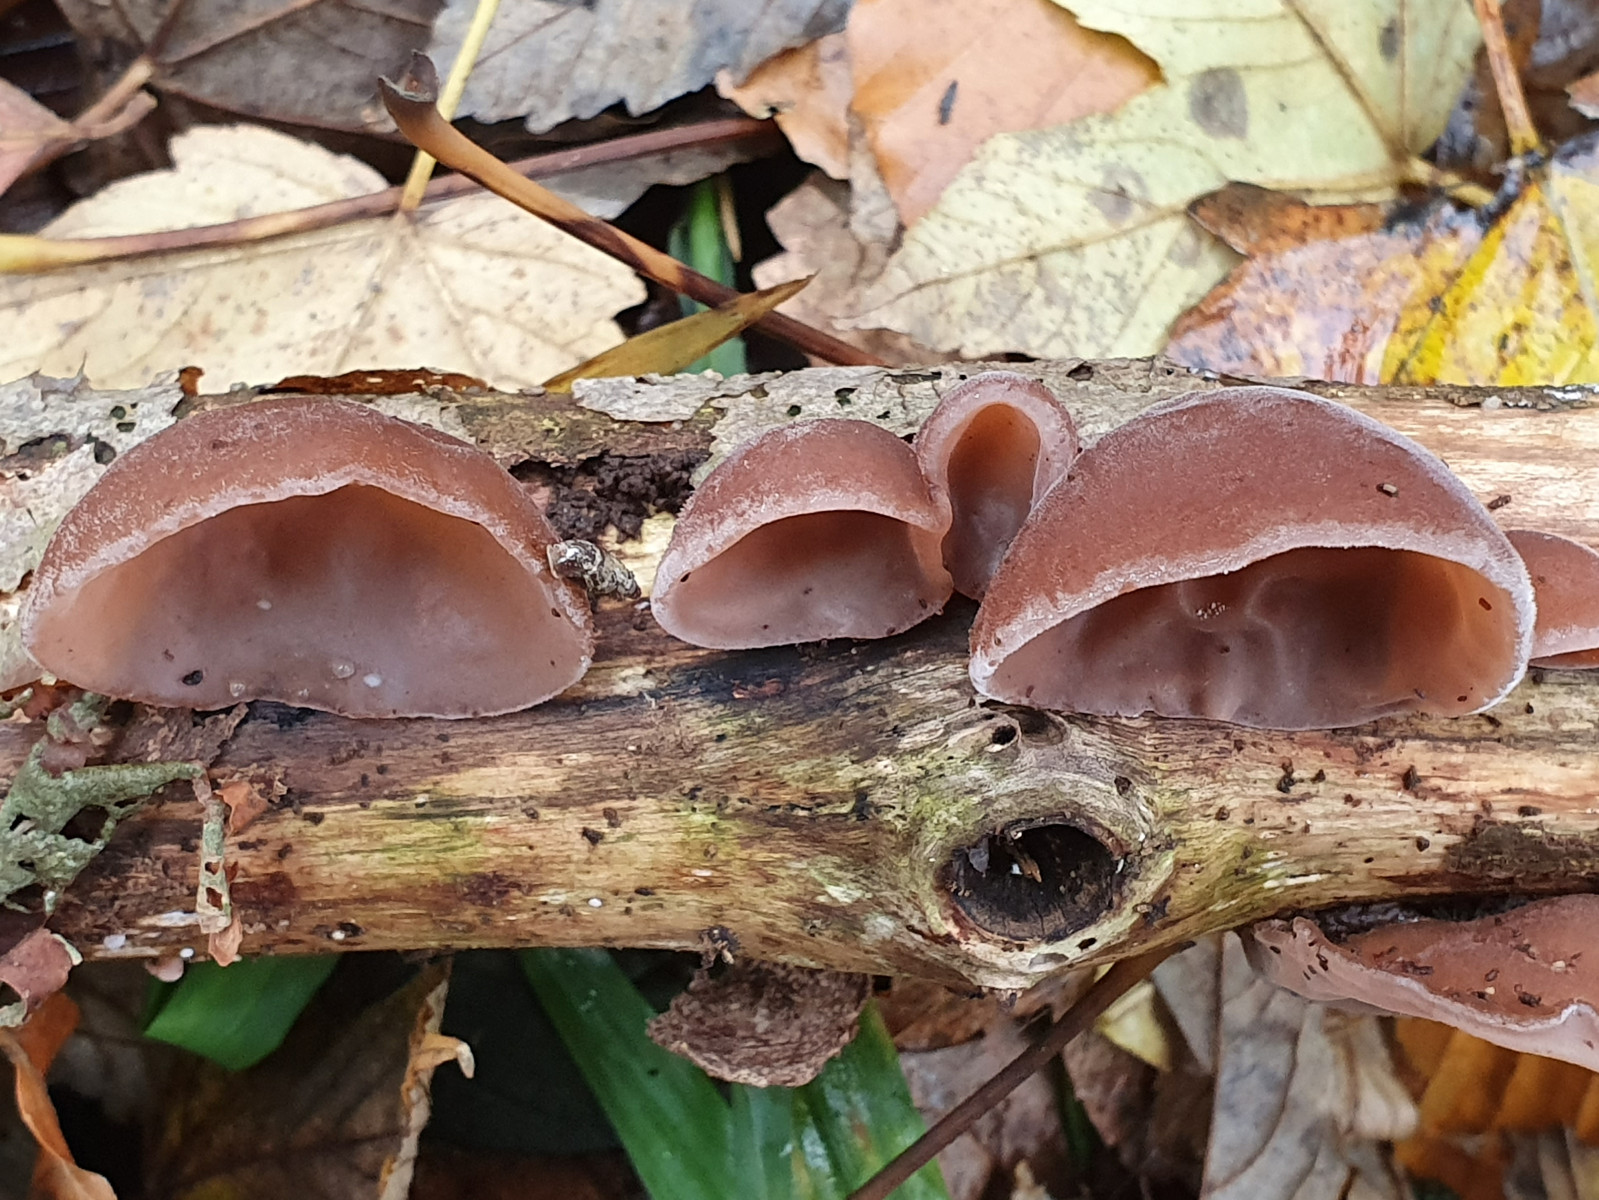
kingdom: Fungi
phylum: Basidiomycota
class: Agaricomycetes
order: Auriculariales
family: Auriculariaceae
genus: Auricularia
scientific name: Auricularia auricula-judae
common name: almindelig judasøre
